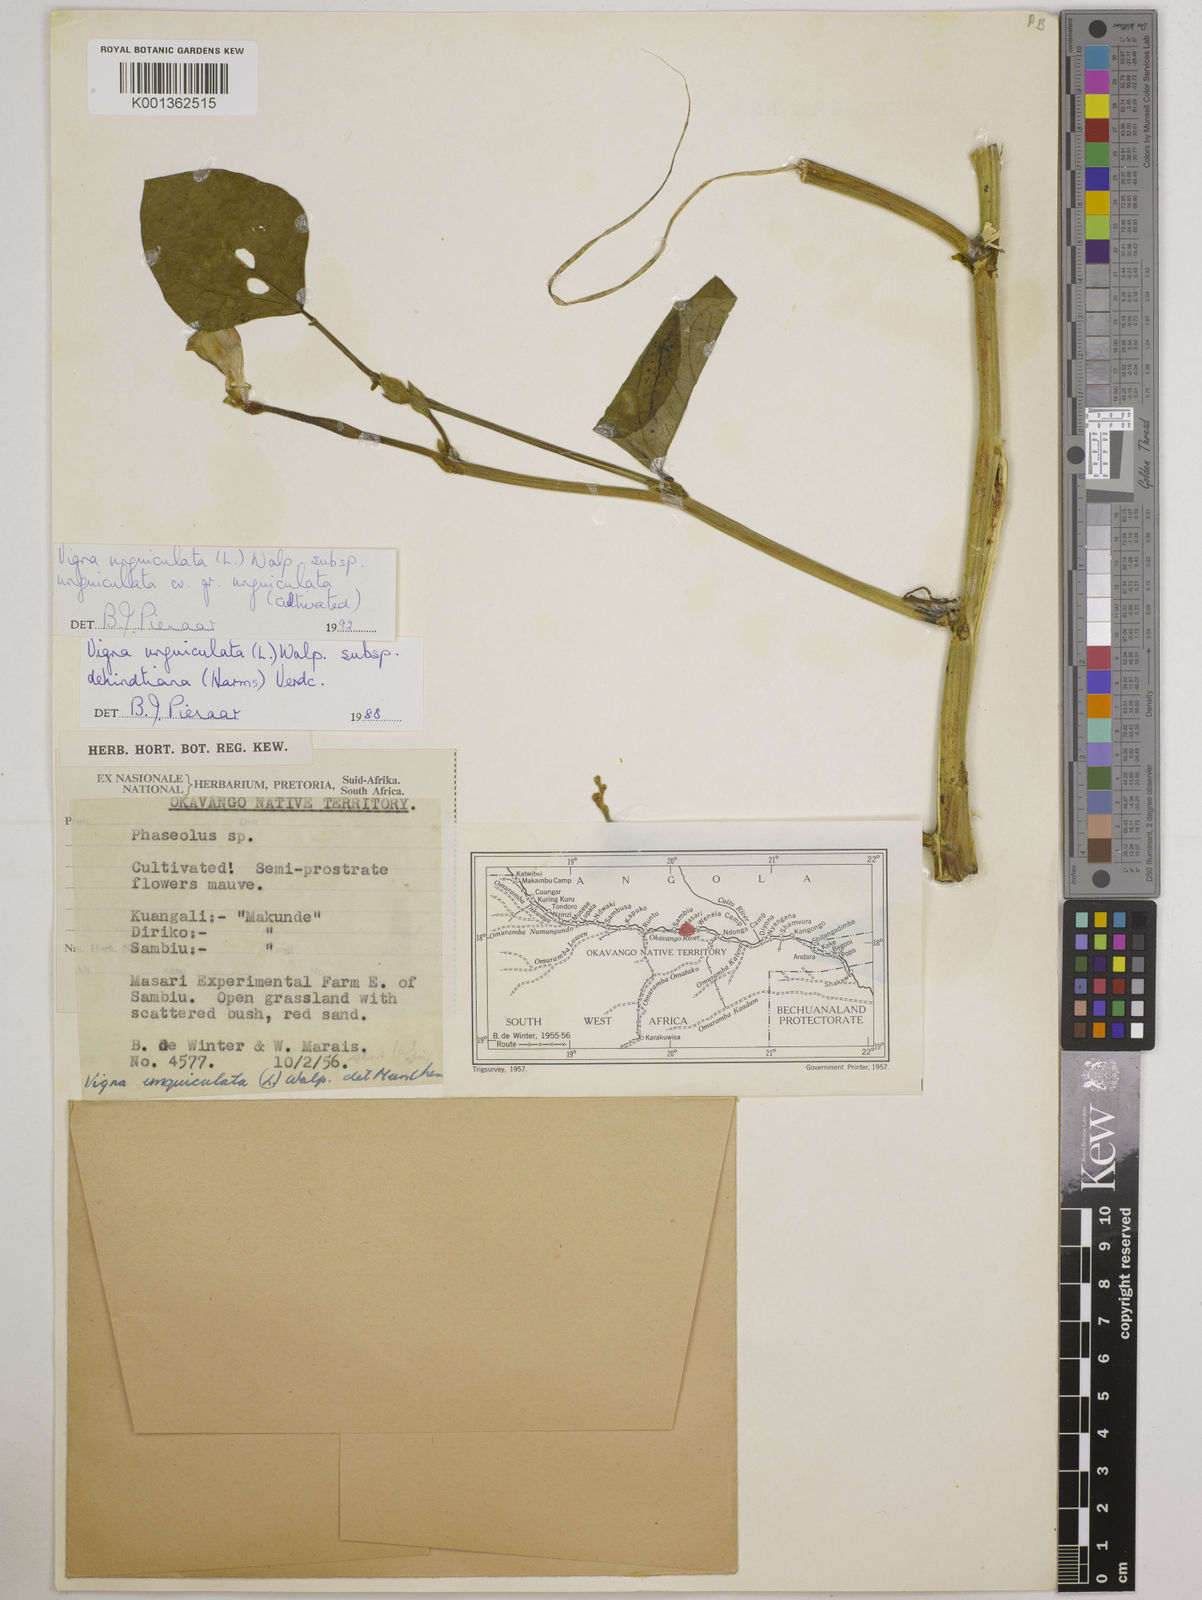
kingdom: Plantae
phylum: Tracheophyta
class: Magnoliopsida
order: Fabales
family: Fabaceae
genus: Vigna
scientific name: Vigna unguiculata
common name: Cowpea
